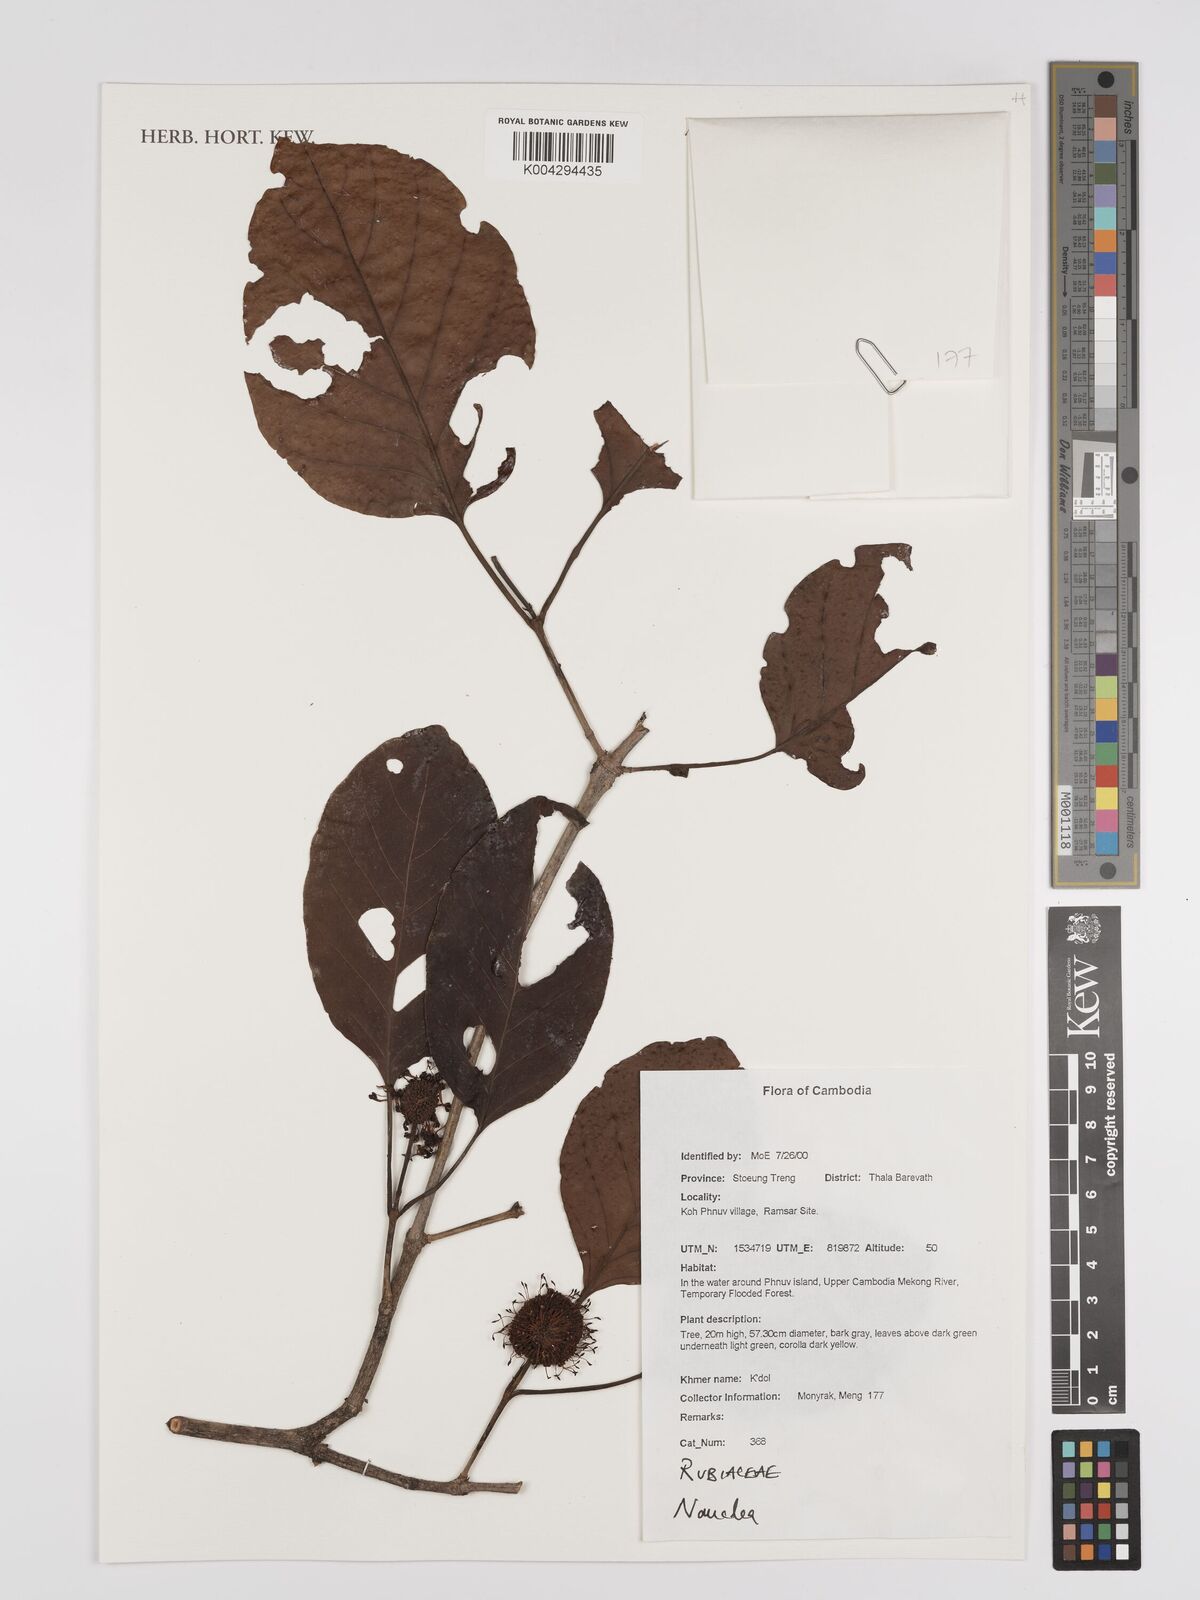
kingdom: Plantae
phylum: Tracheophyta
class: Magnoliopsida
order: Gentianales
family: Rubiaceae
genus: Nauclea
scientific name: Nauclea
